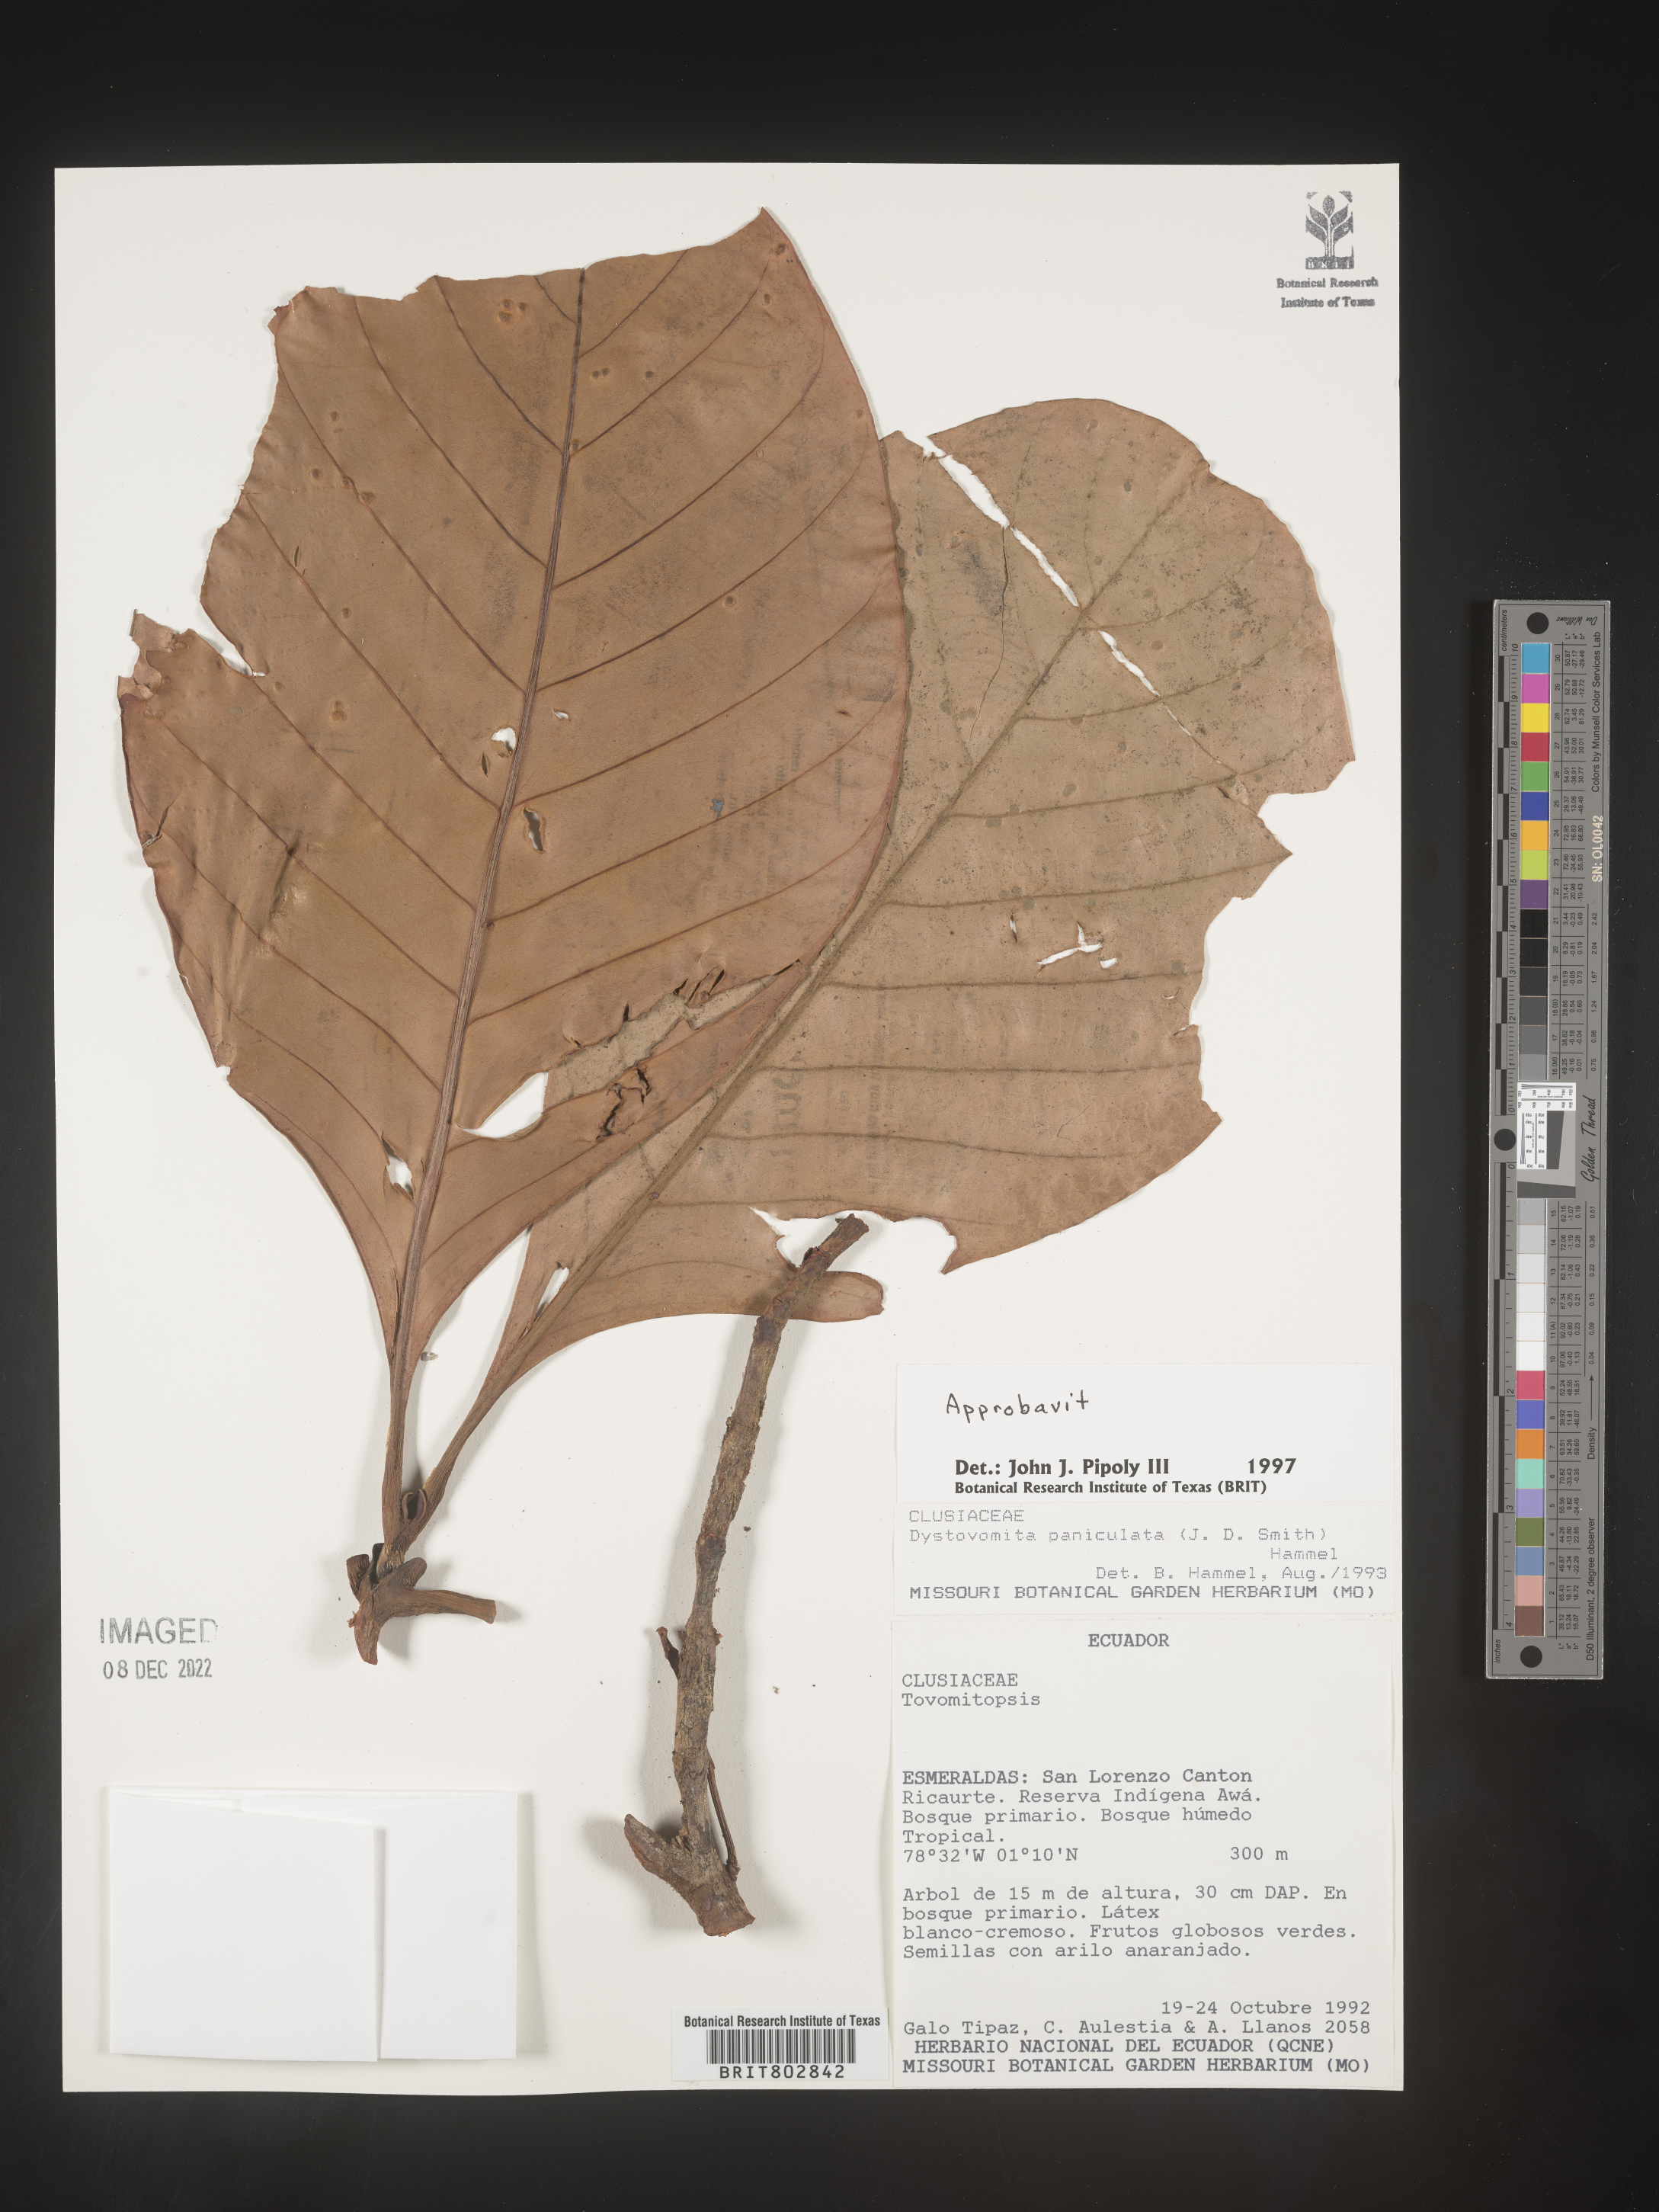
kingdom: Plantae
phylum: Tracheophyta
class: Magnoliopsida
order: Malpighiales
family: Clusiaceae
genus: Dystovomita
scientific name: Dystovomita
